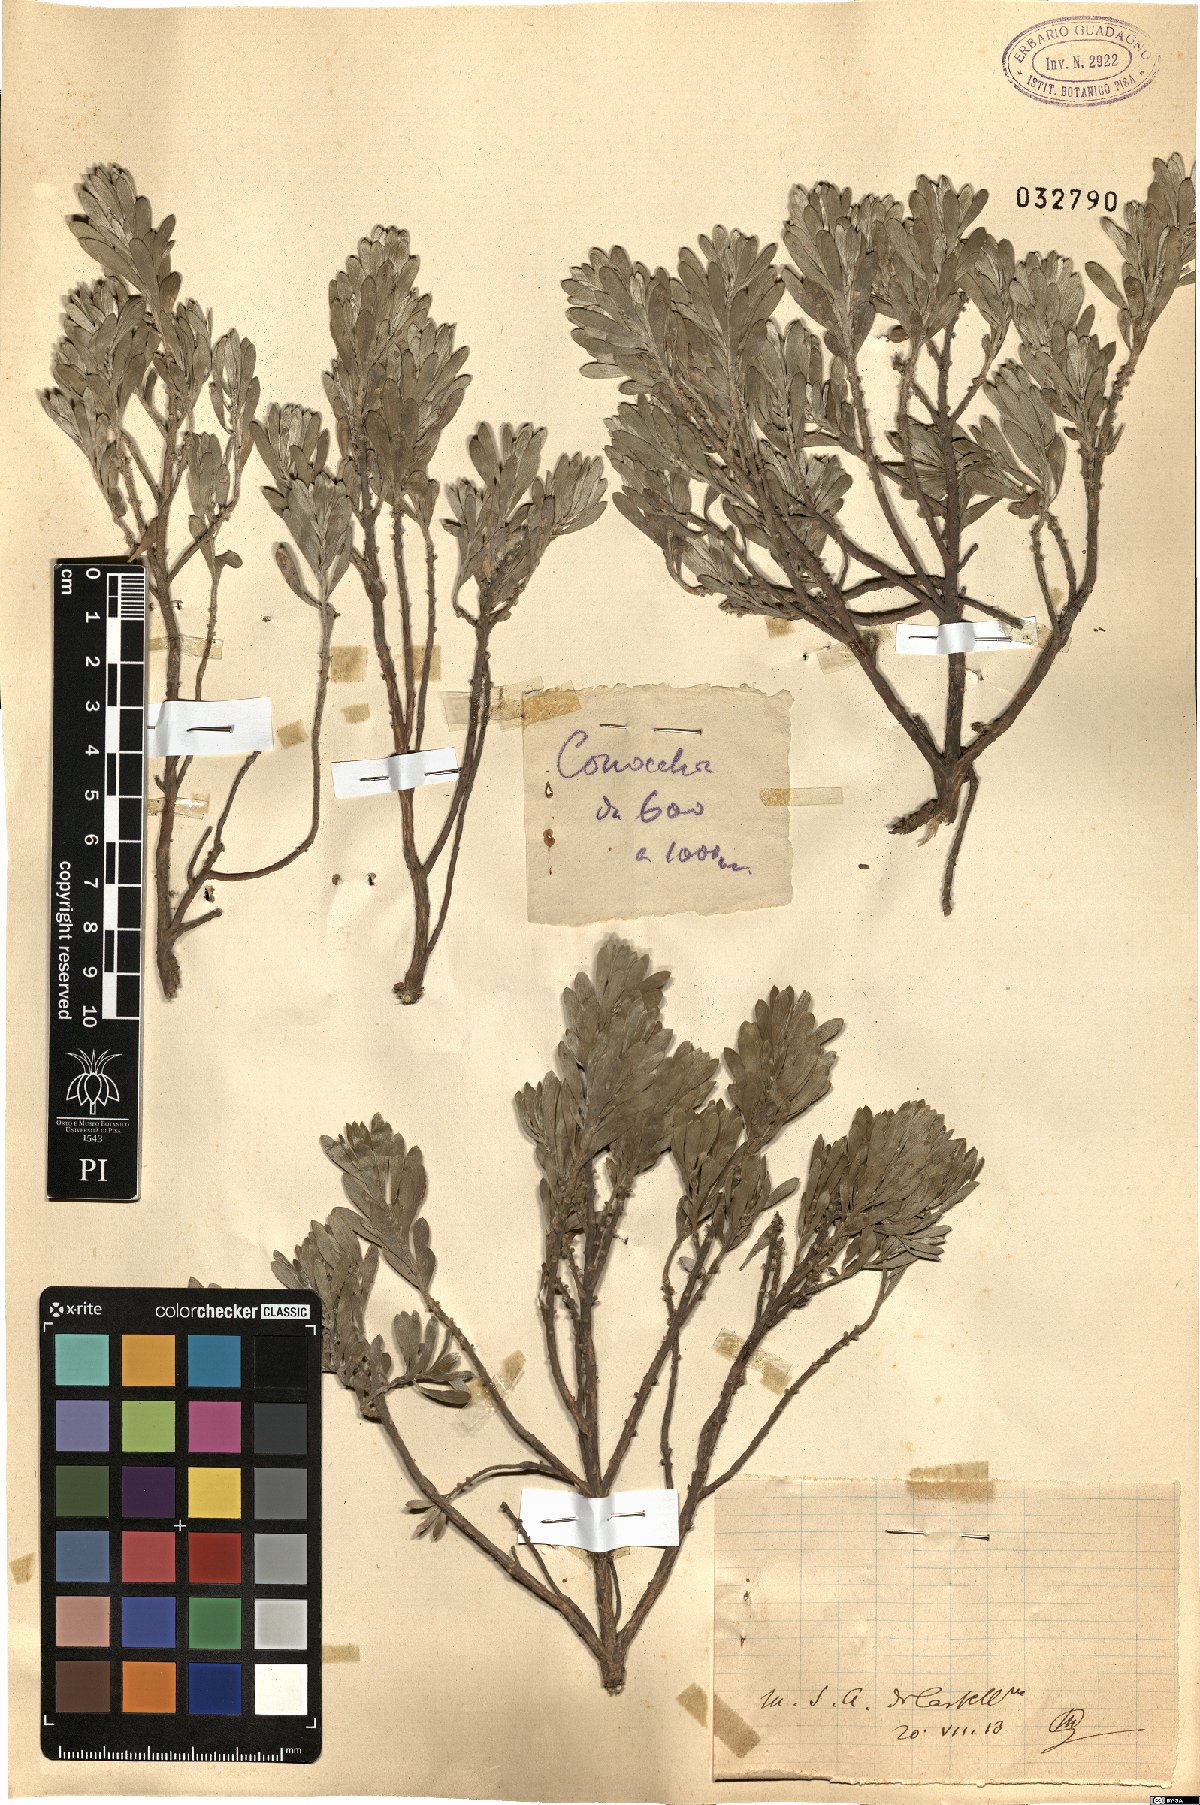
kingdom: Plantae
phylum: Tracheophyta
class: Magnoliopsida
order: Malvales
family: Thymelaeaceae
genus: Thymelaea
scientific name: Thymelaea
